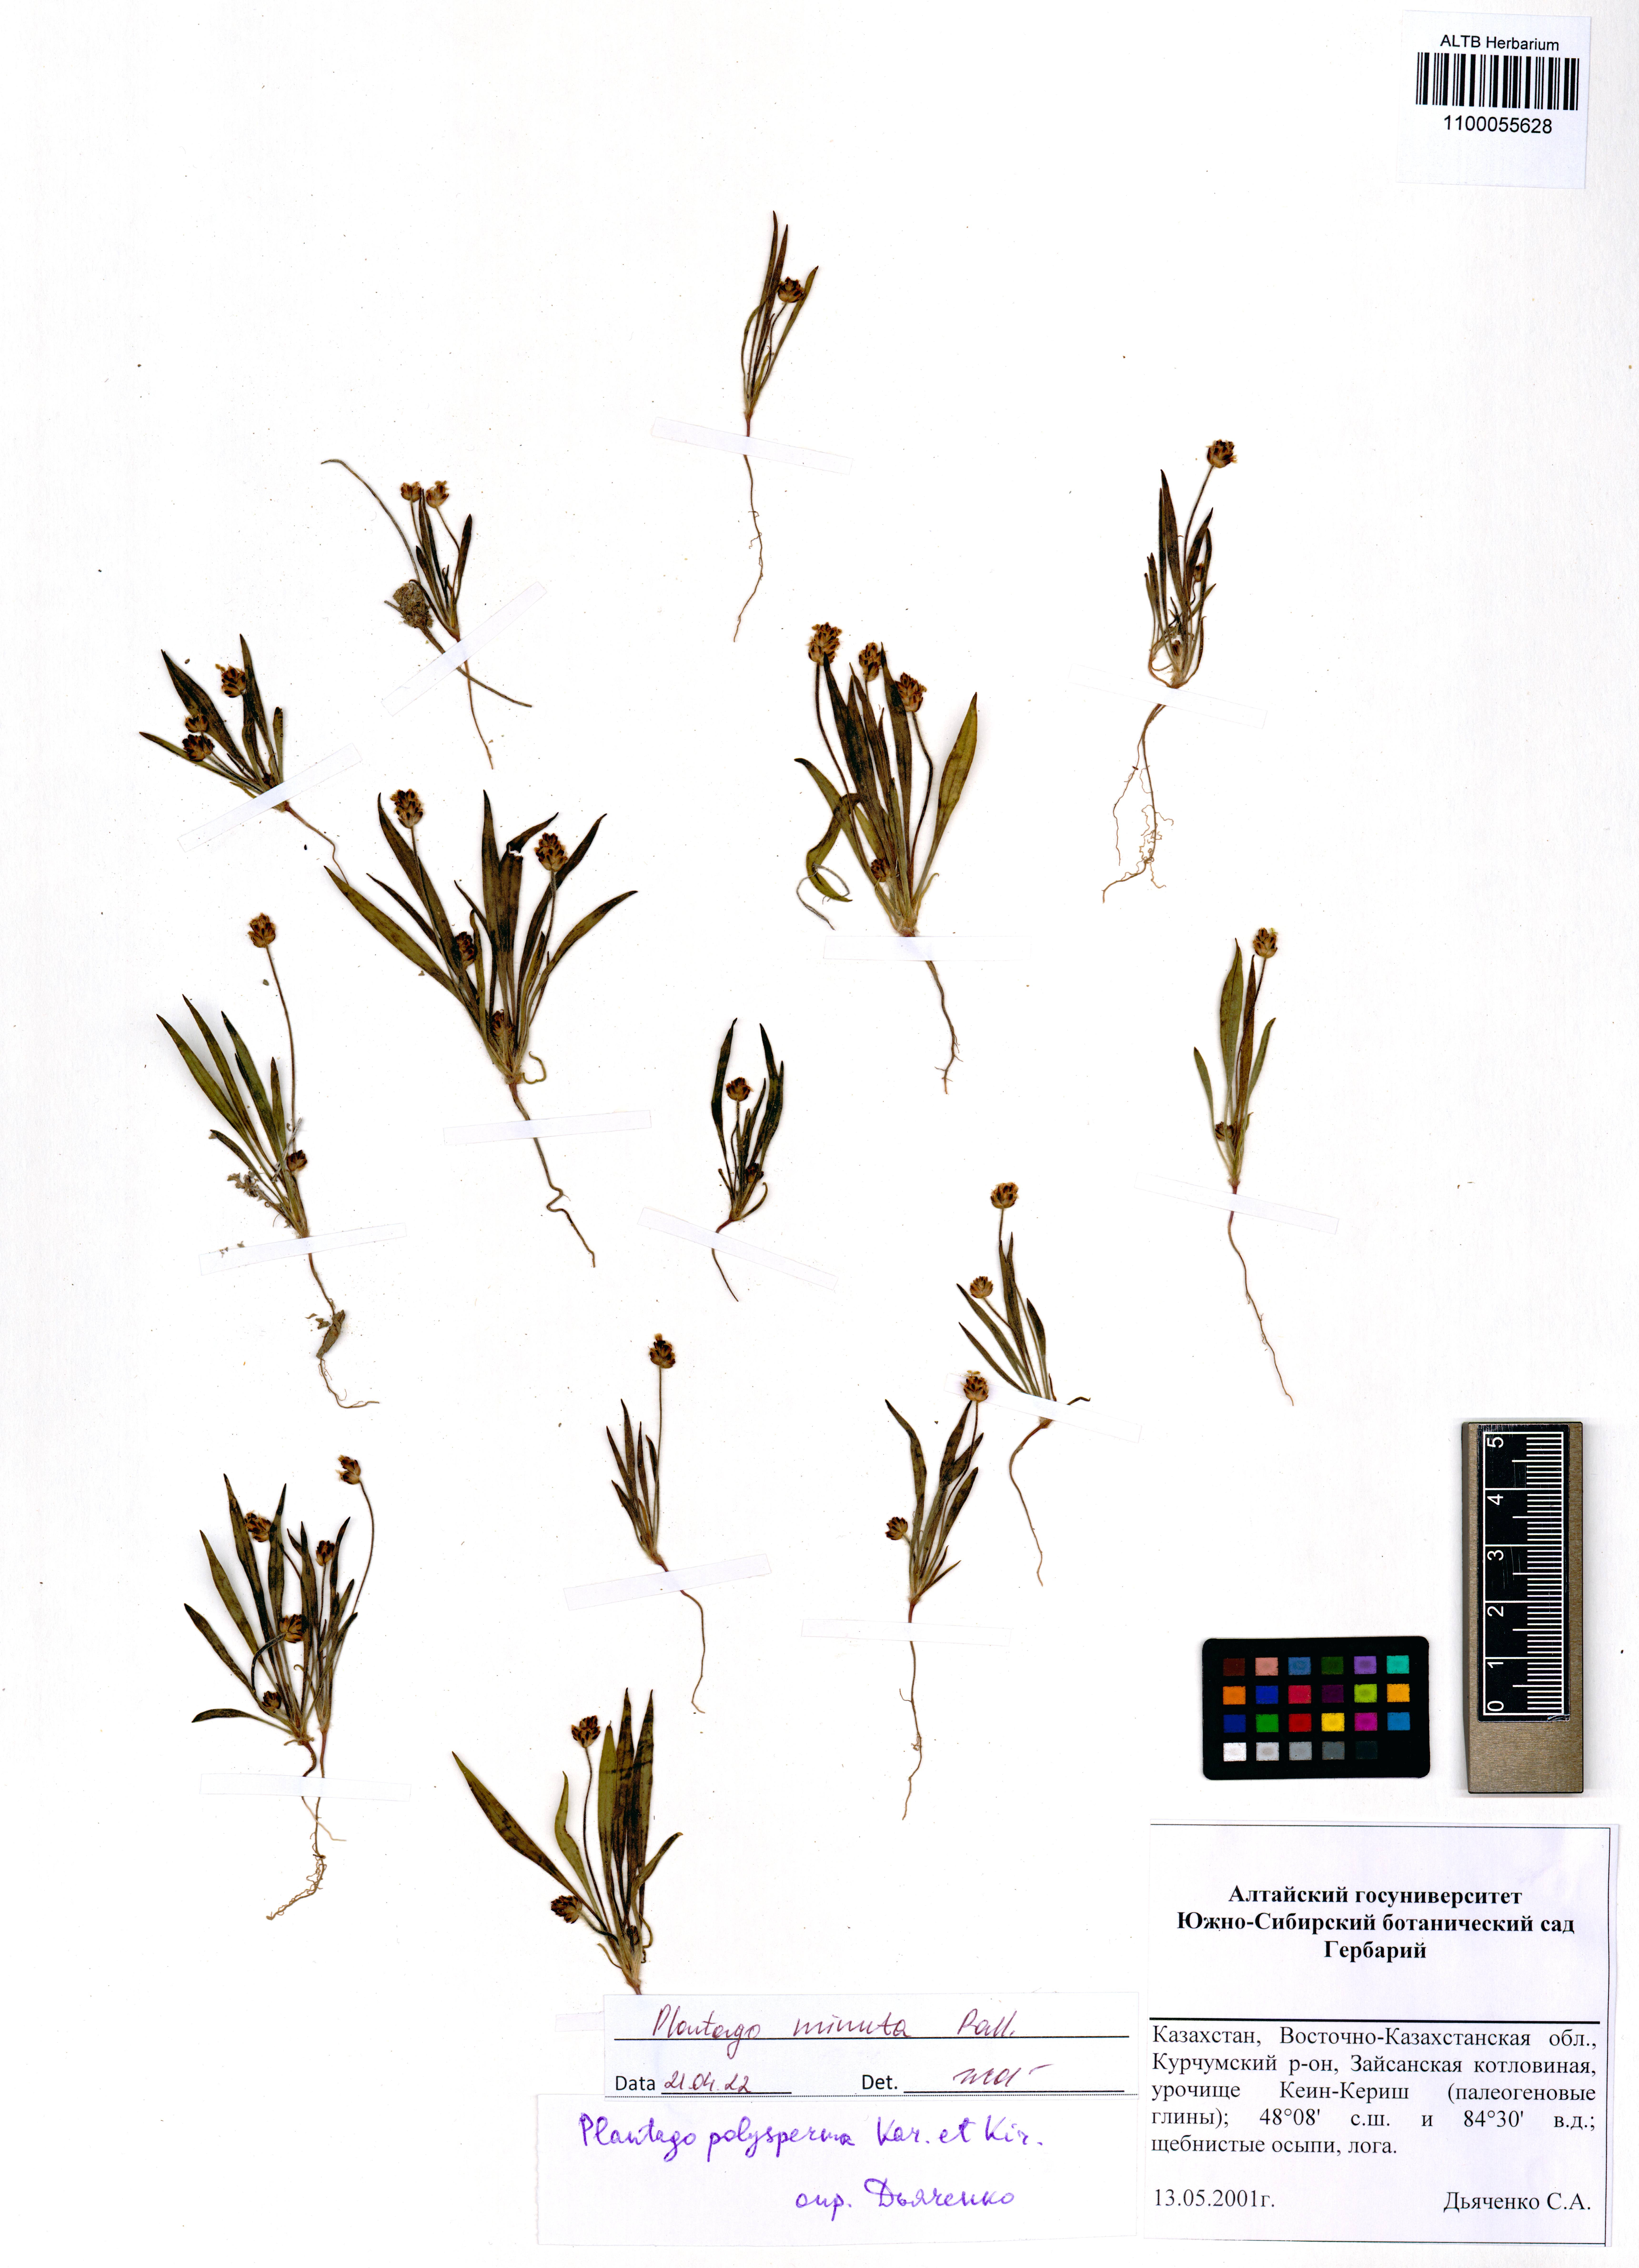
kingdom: Plantae
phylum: Tracheophyta
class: Magnoliopsida
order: Lamiales
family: Plantaginaceae
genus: Plantago
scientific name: Plantago minuta
